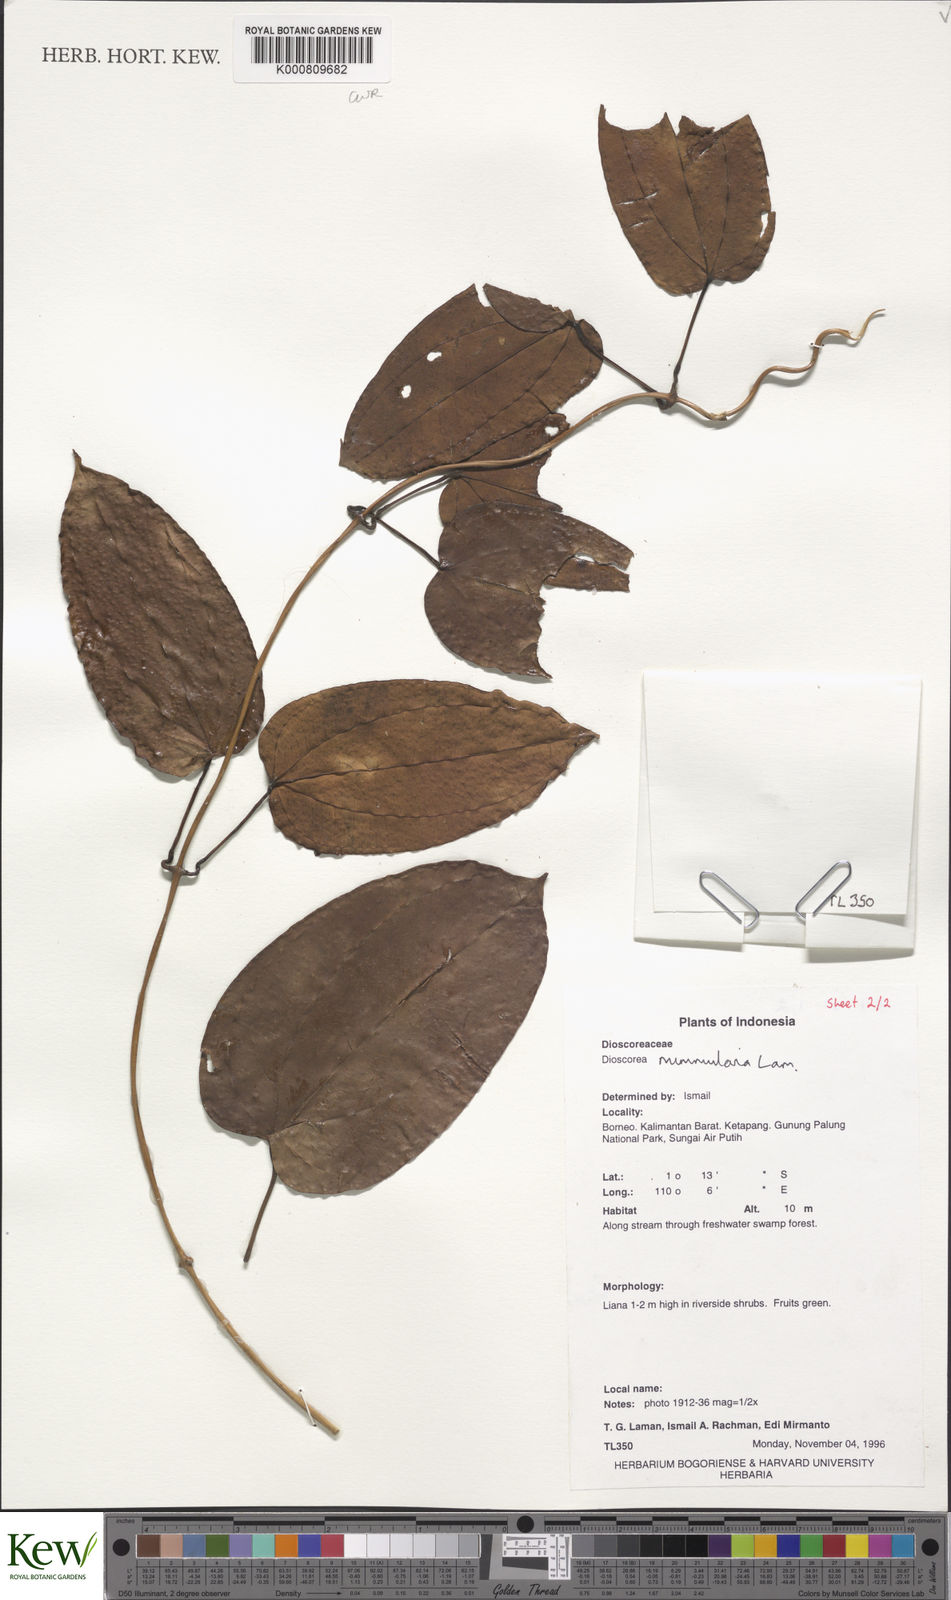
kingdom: Plantae
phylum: Tracheophyta
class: Liliopsida
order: Dioscoreales
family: Dioscoreaceae
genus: Dioscorea
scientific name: Dioscorea nummularia
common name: Pacific yam
